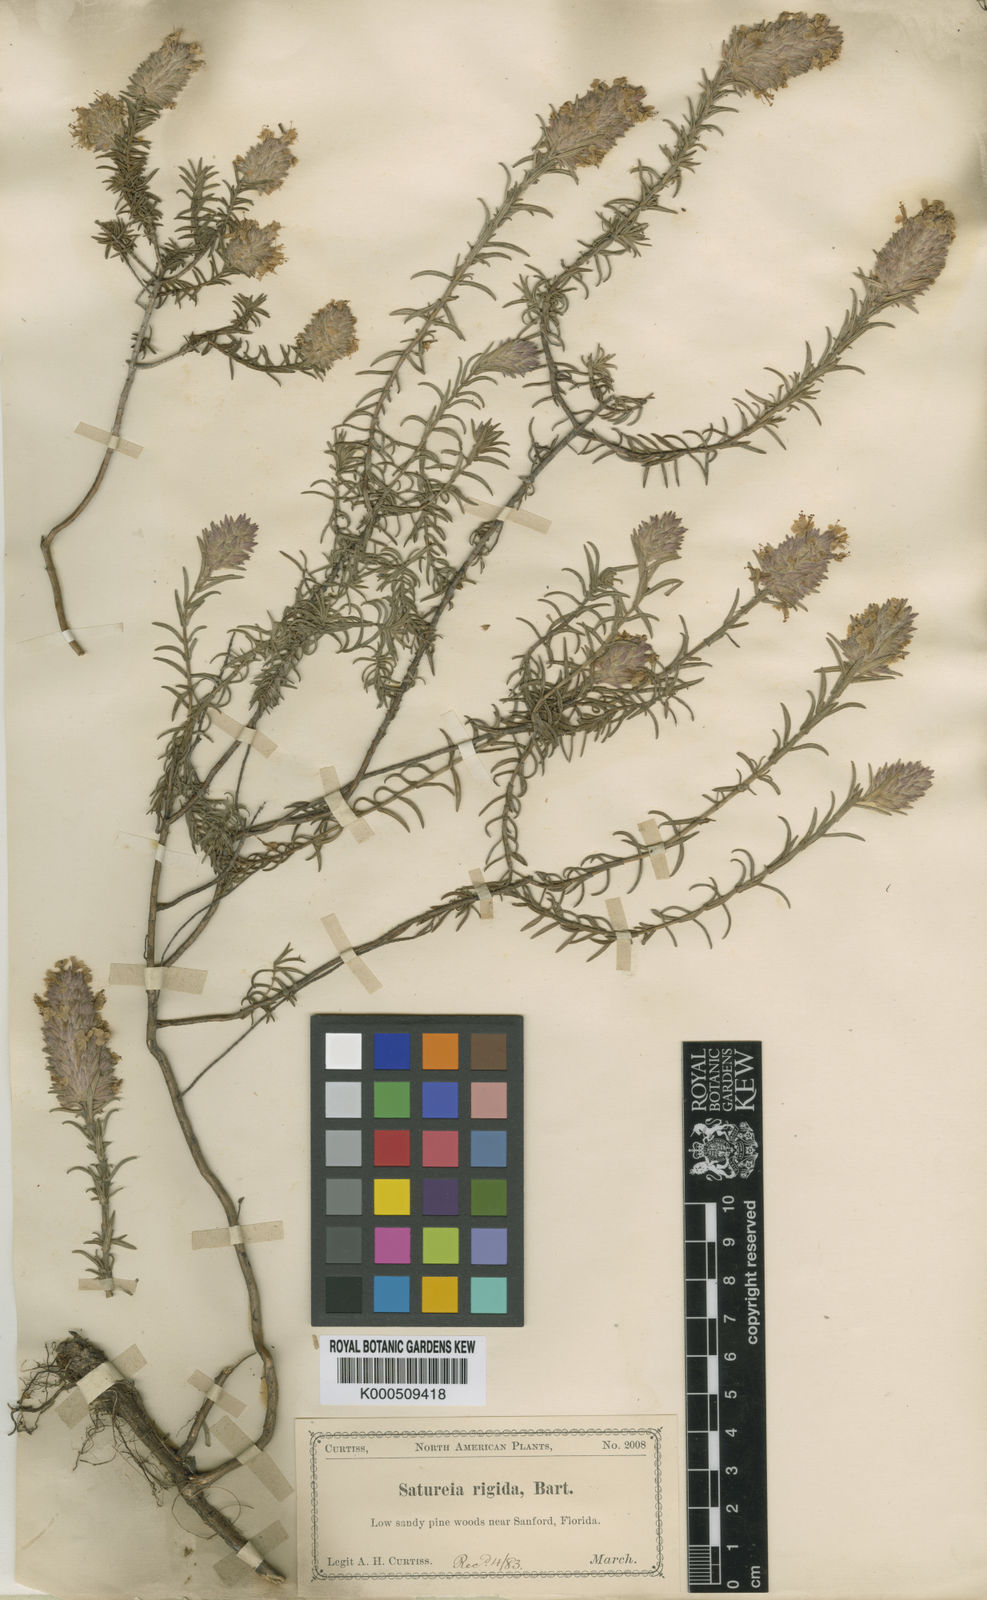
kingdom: Plantae
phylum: Tracheophyta
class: Magnoliopsida
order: Lamiales
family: Lamiaceae
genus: Piloblephis
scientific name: Piloblephis rigida
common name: Wild pennyroyal
